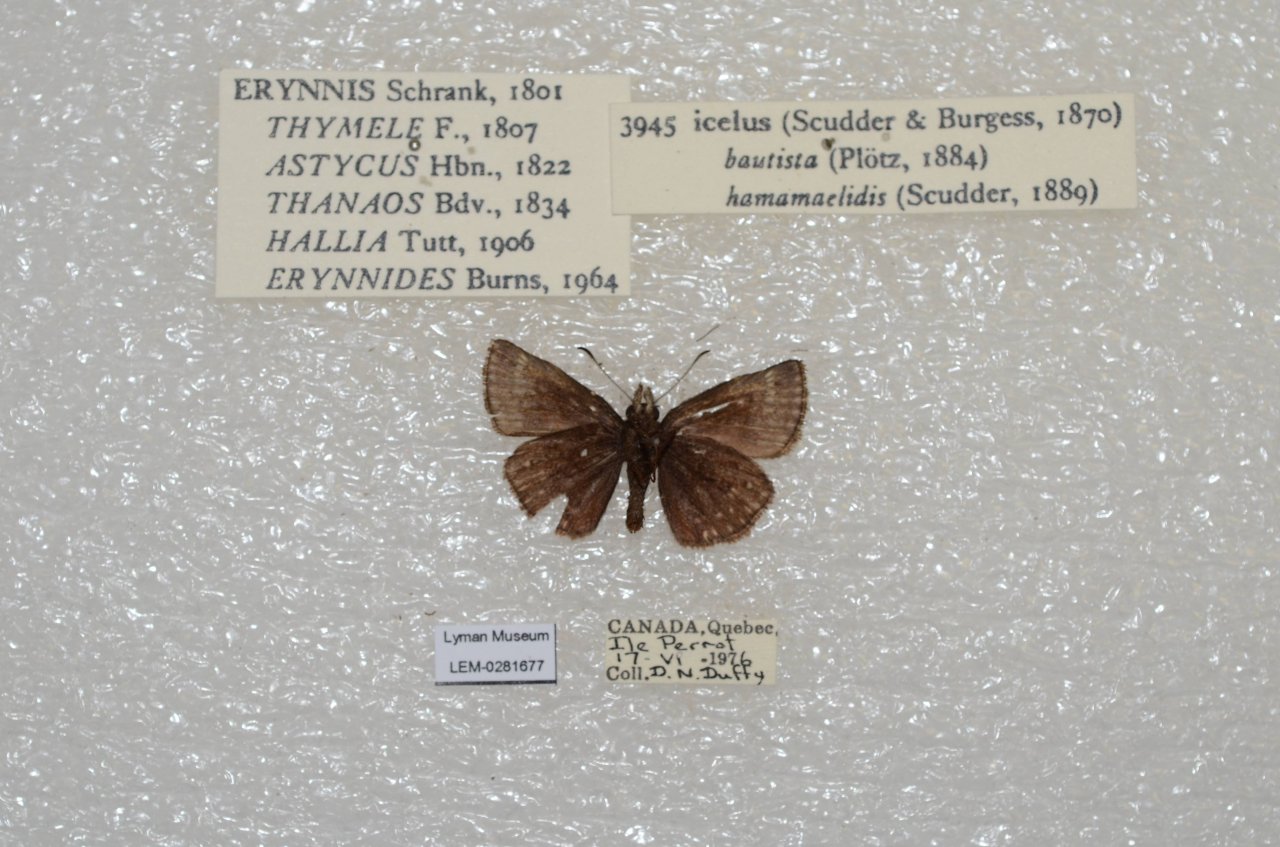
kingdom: Animalia
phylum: Arthropoda
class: Insecta
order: Lepidoptera
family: Hesperiidae
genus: Erynnis
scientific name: Erynnis icelus
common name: Dreamy Duskywing
